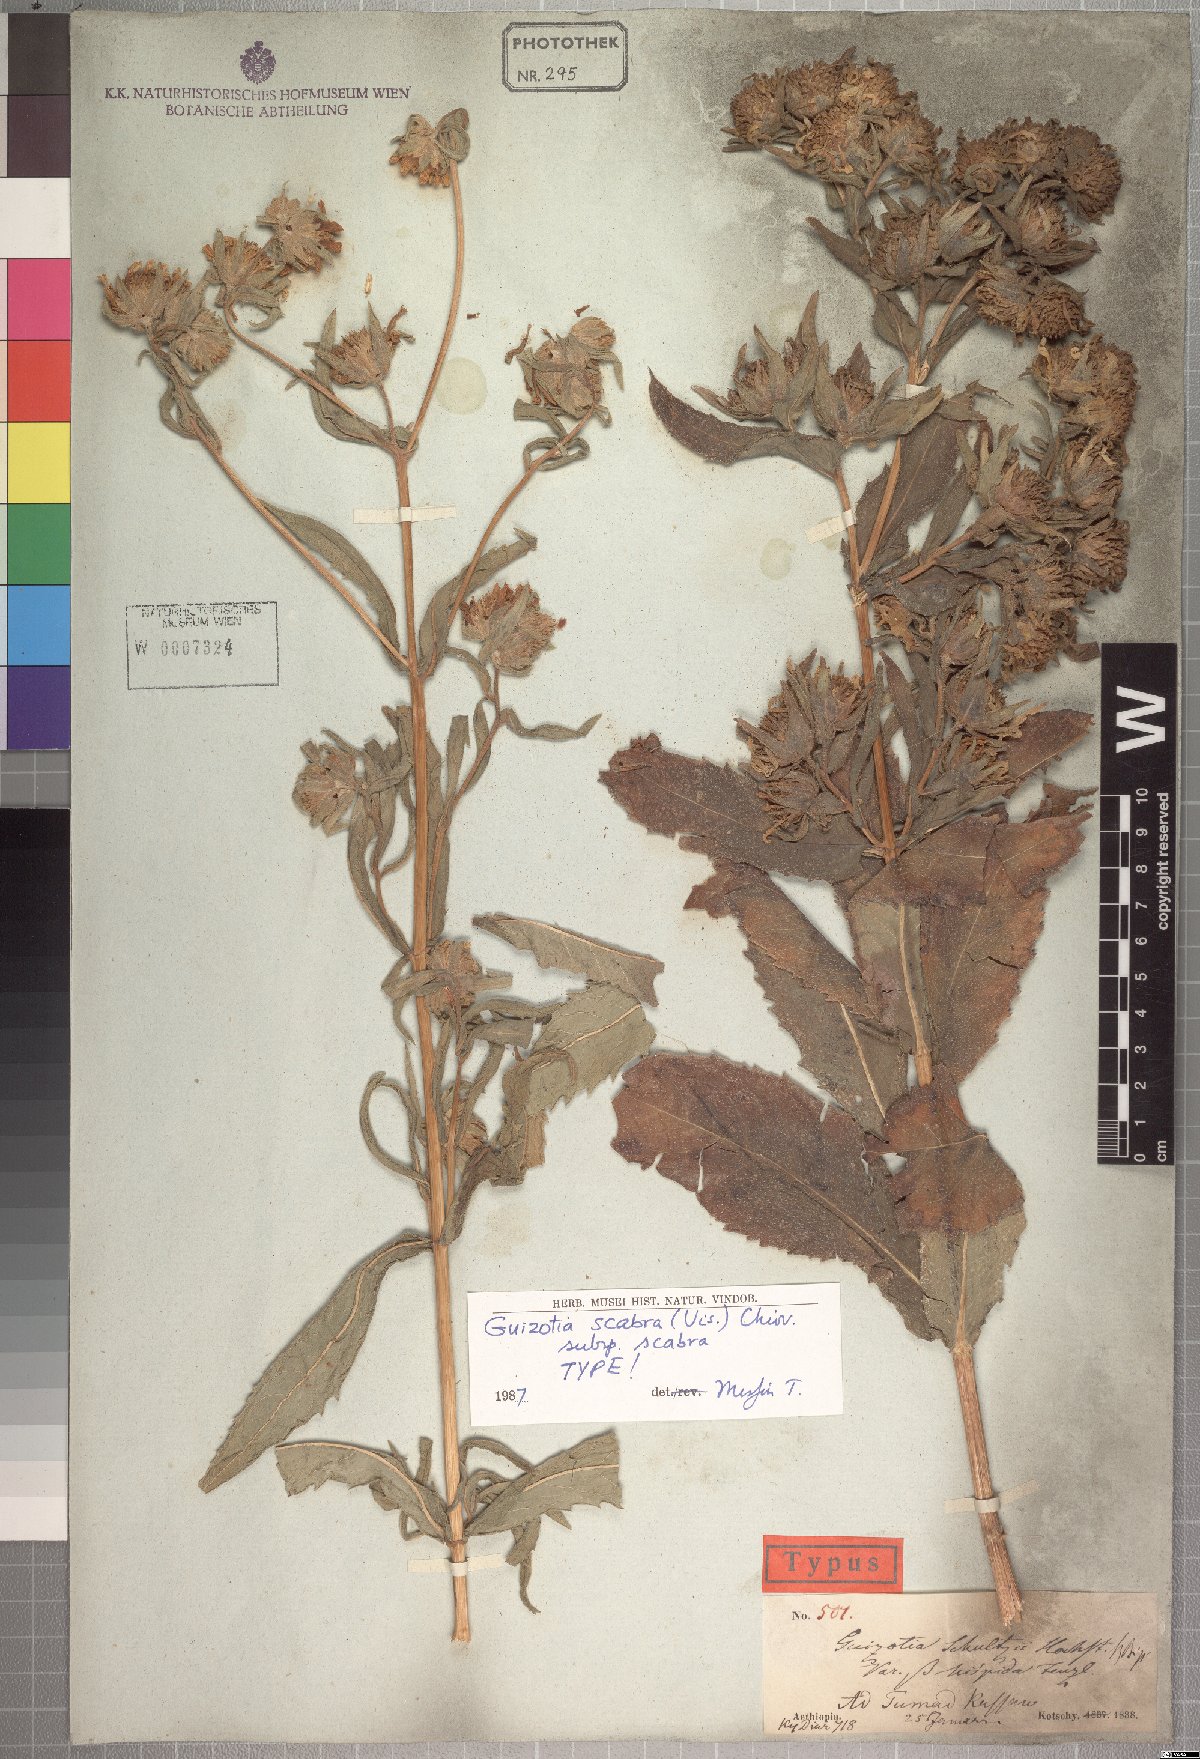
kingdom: Plantae
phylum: Tracheophyta
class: Magnoliopsida
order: Asterales
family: Asteraceae
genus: Guizotia
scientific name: Guizotia scabra
